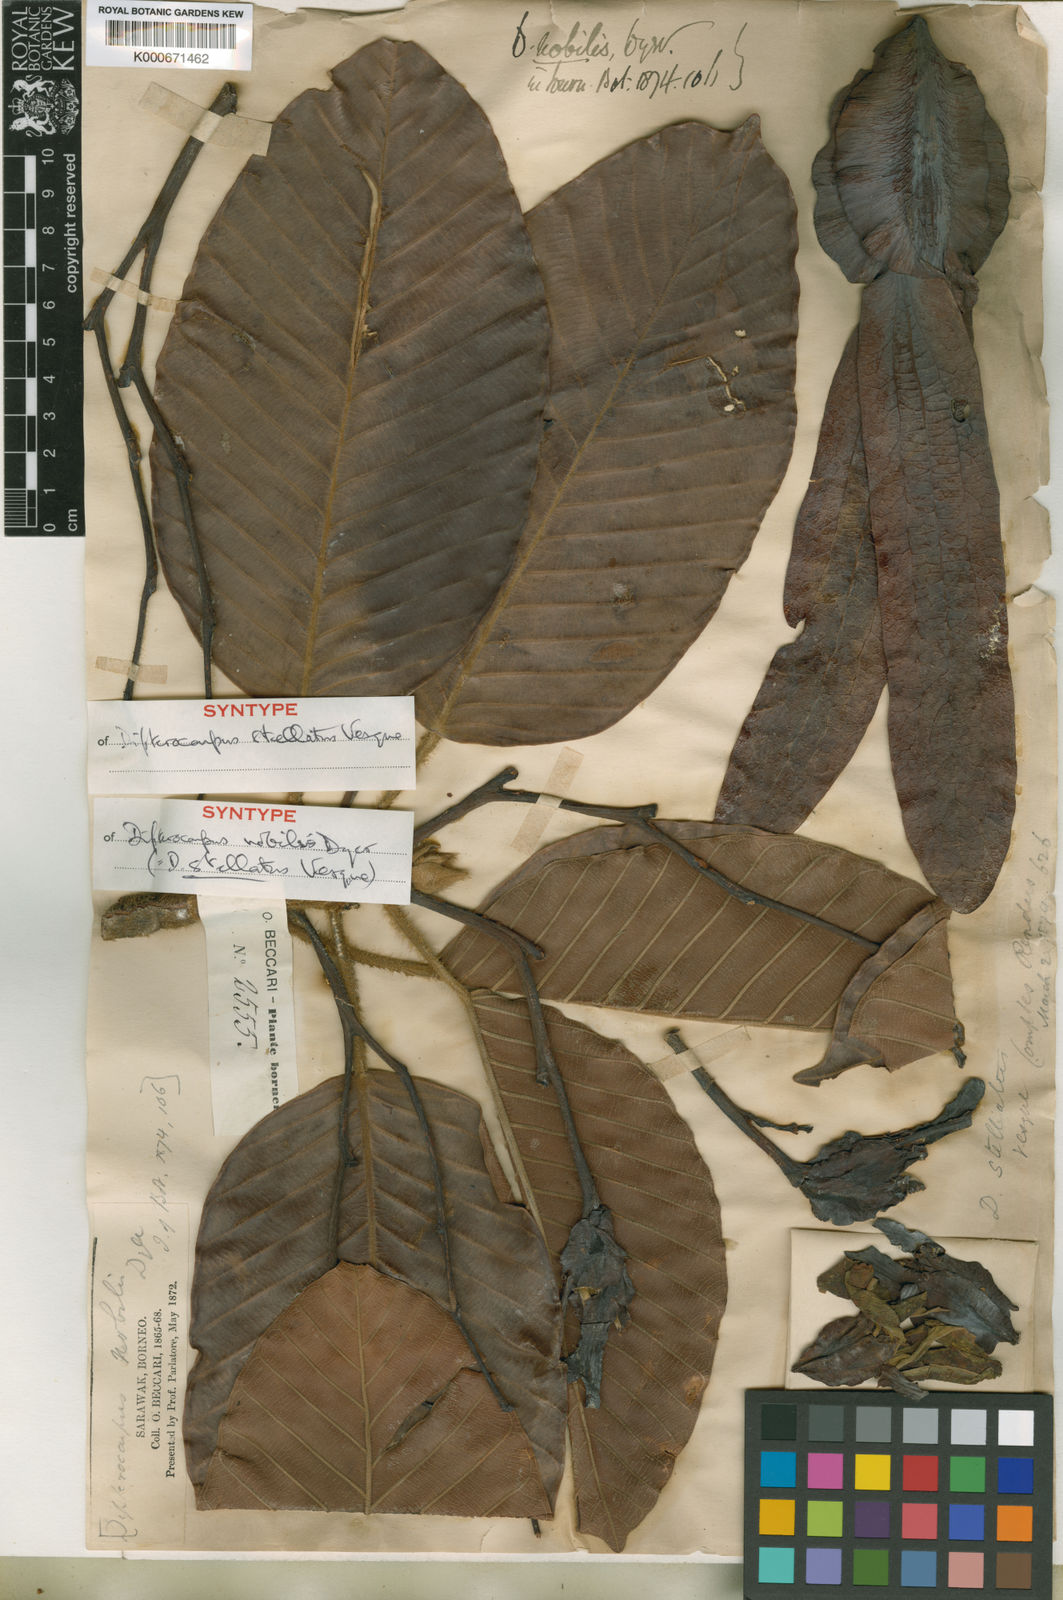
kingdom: Plantae
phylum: Tracheophyta
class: Magnoliopsida
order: Malvales
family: Dipterocarpaceae
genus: Dipterocarpus
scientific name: Dipterocarpus stellatus
